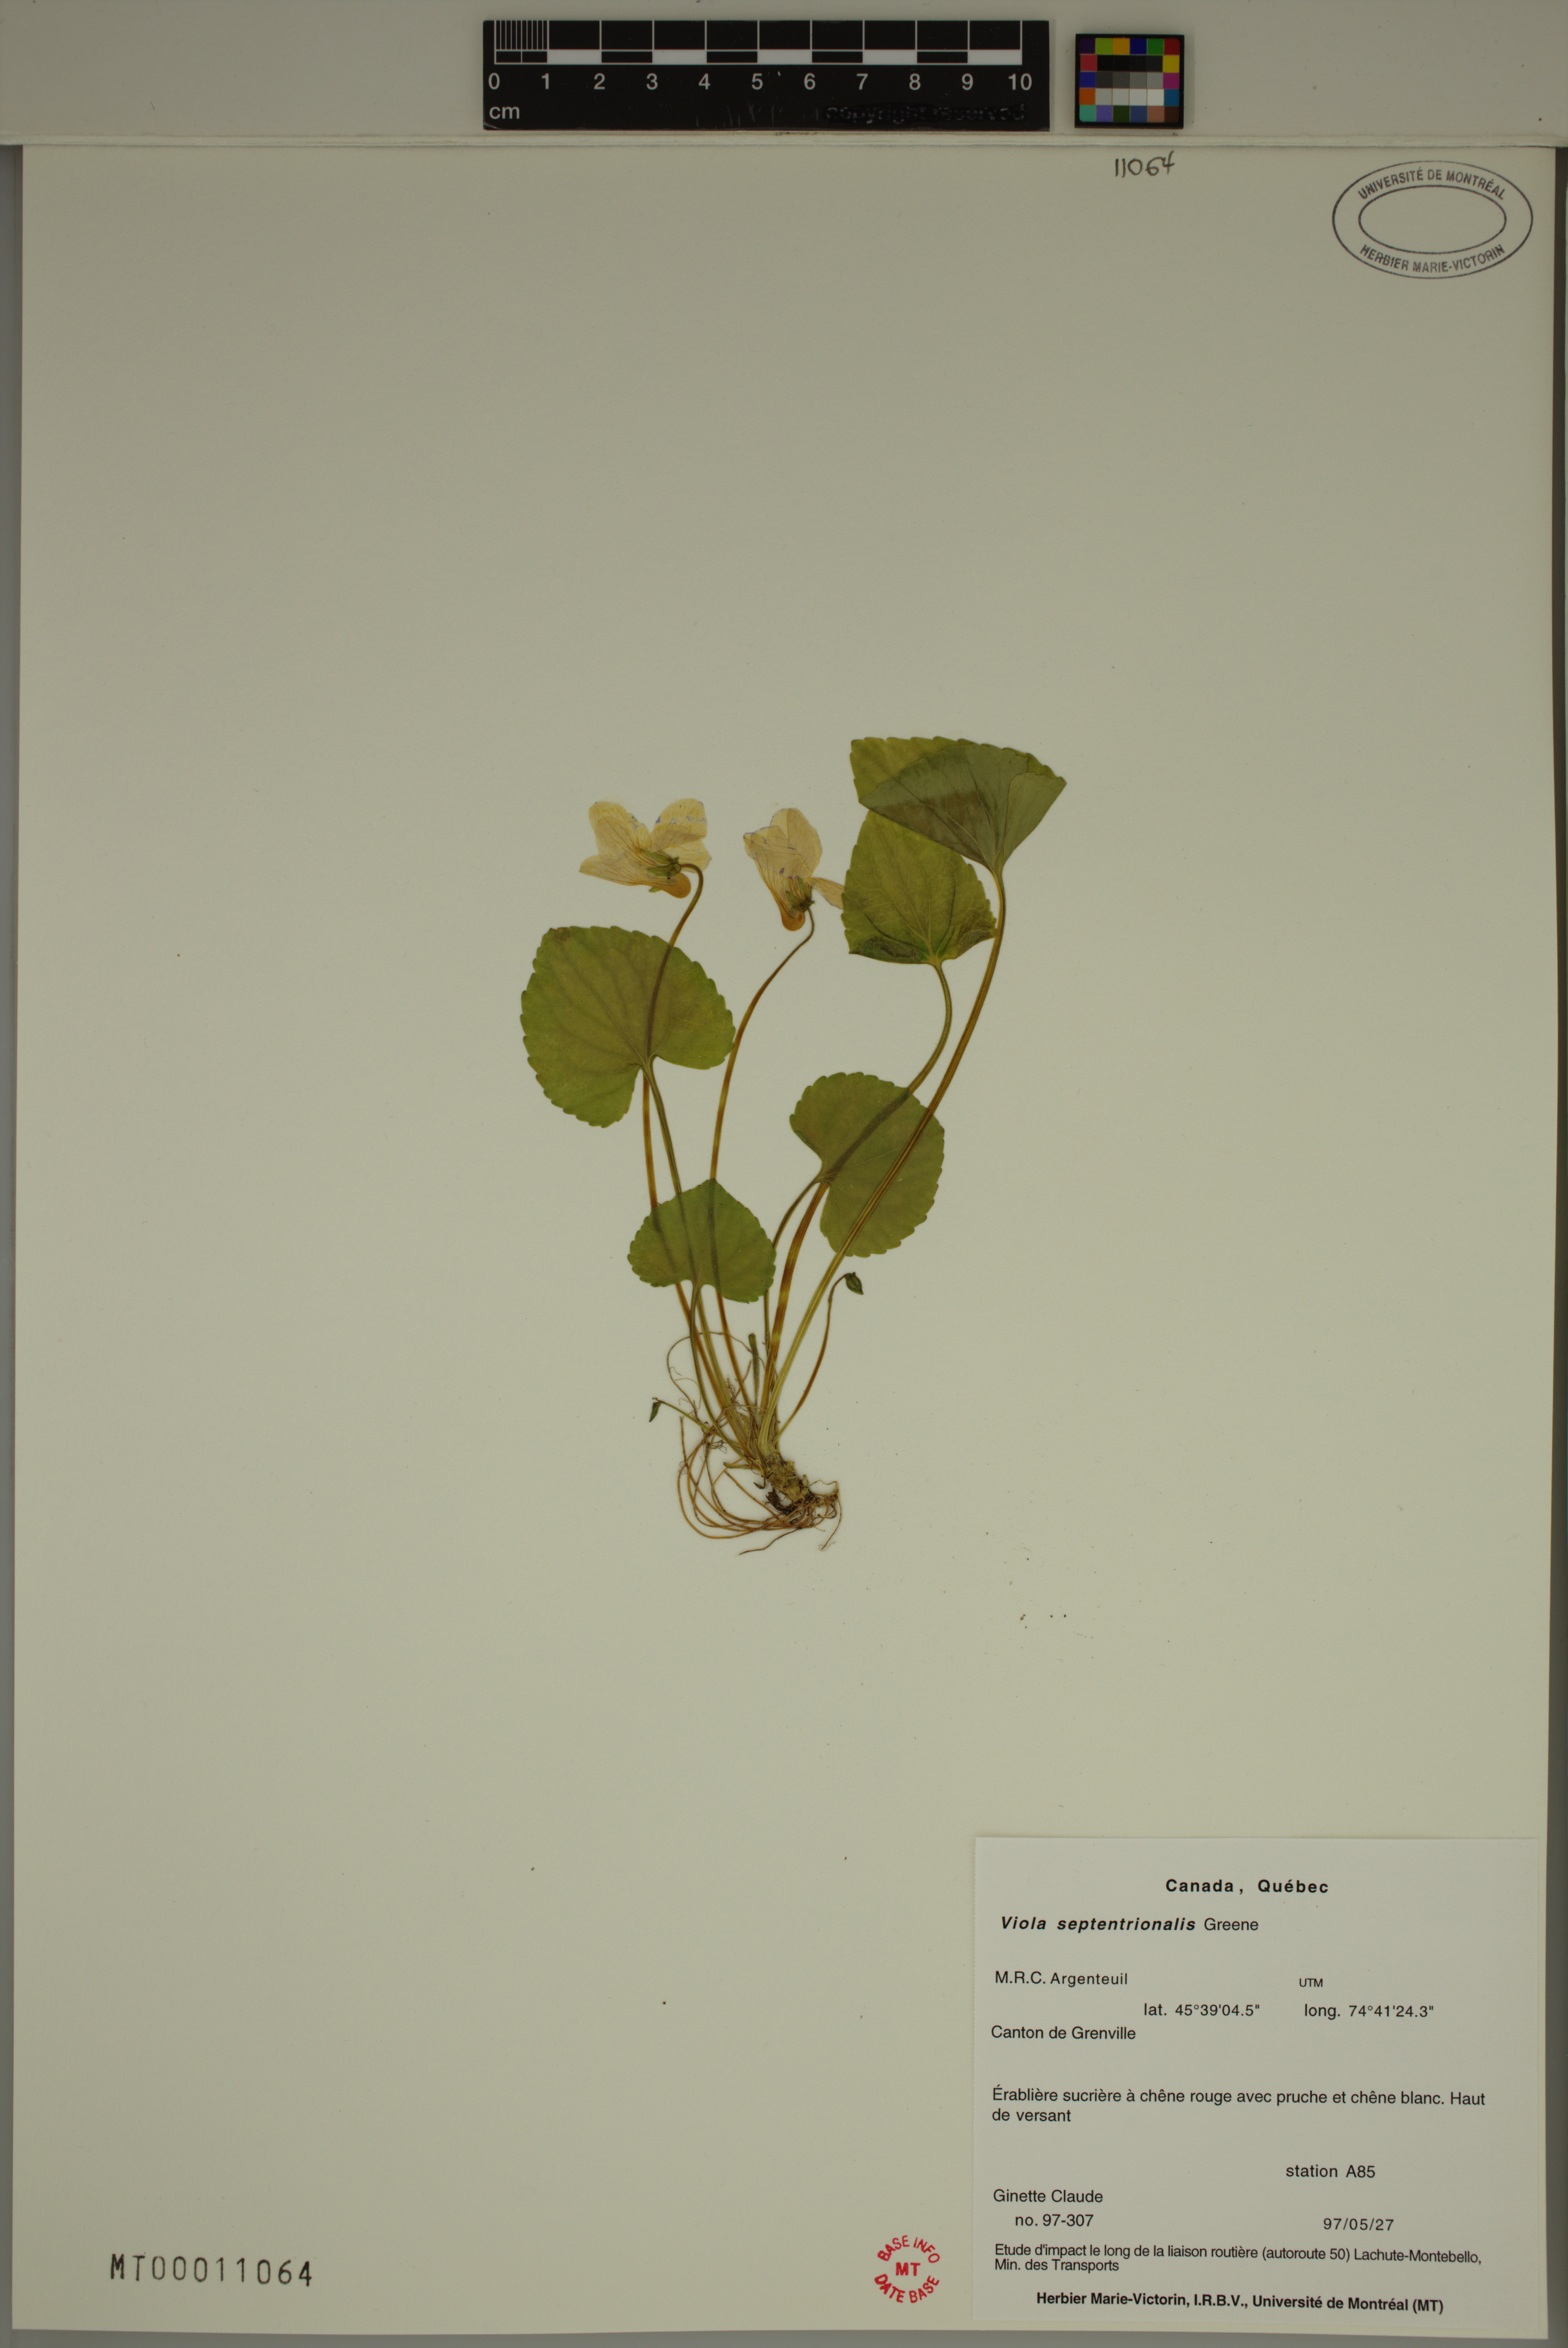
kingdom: Plantae
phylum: Tracheophyta
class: Magnoliopsida
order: Malpighiales
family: Violaceae
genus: Viola
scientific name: Viola sororia
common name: Dooryard violet
